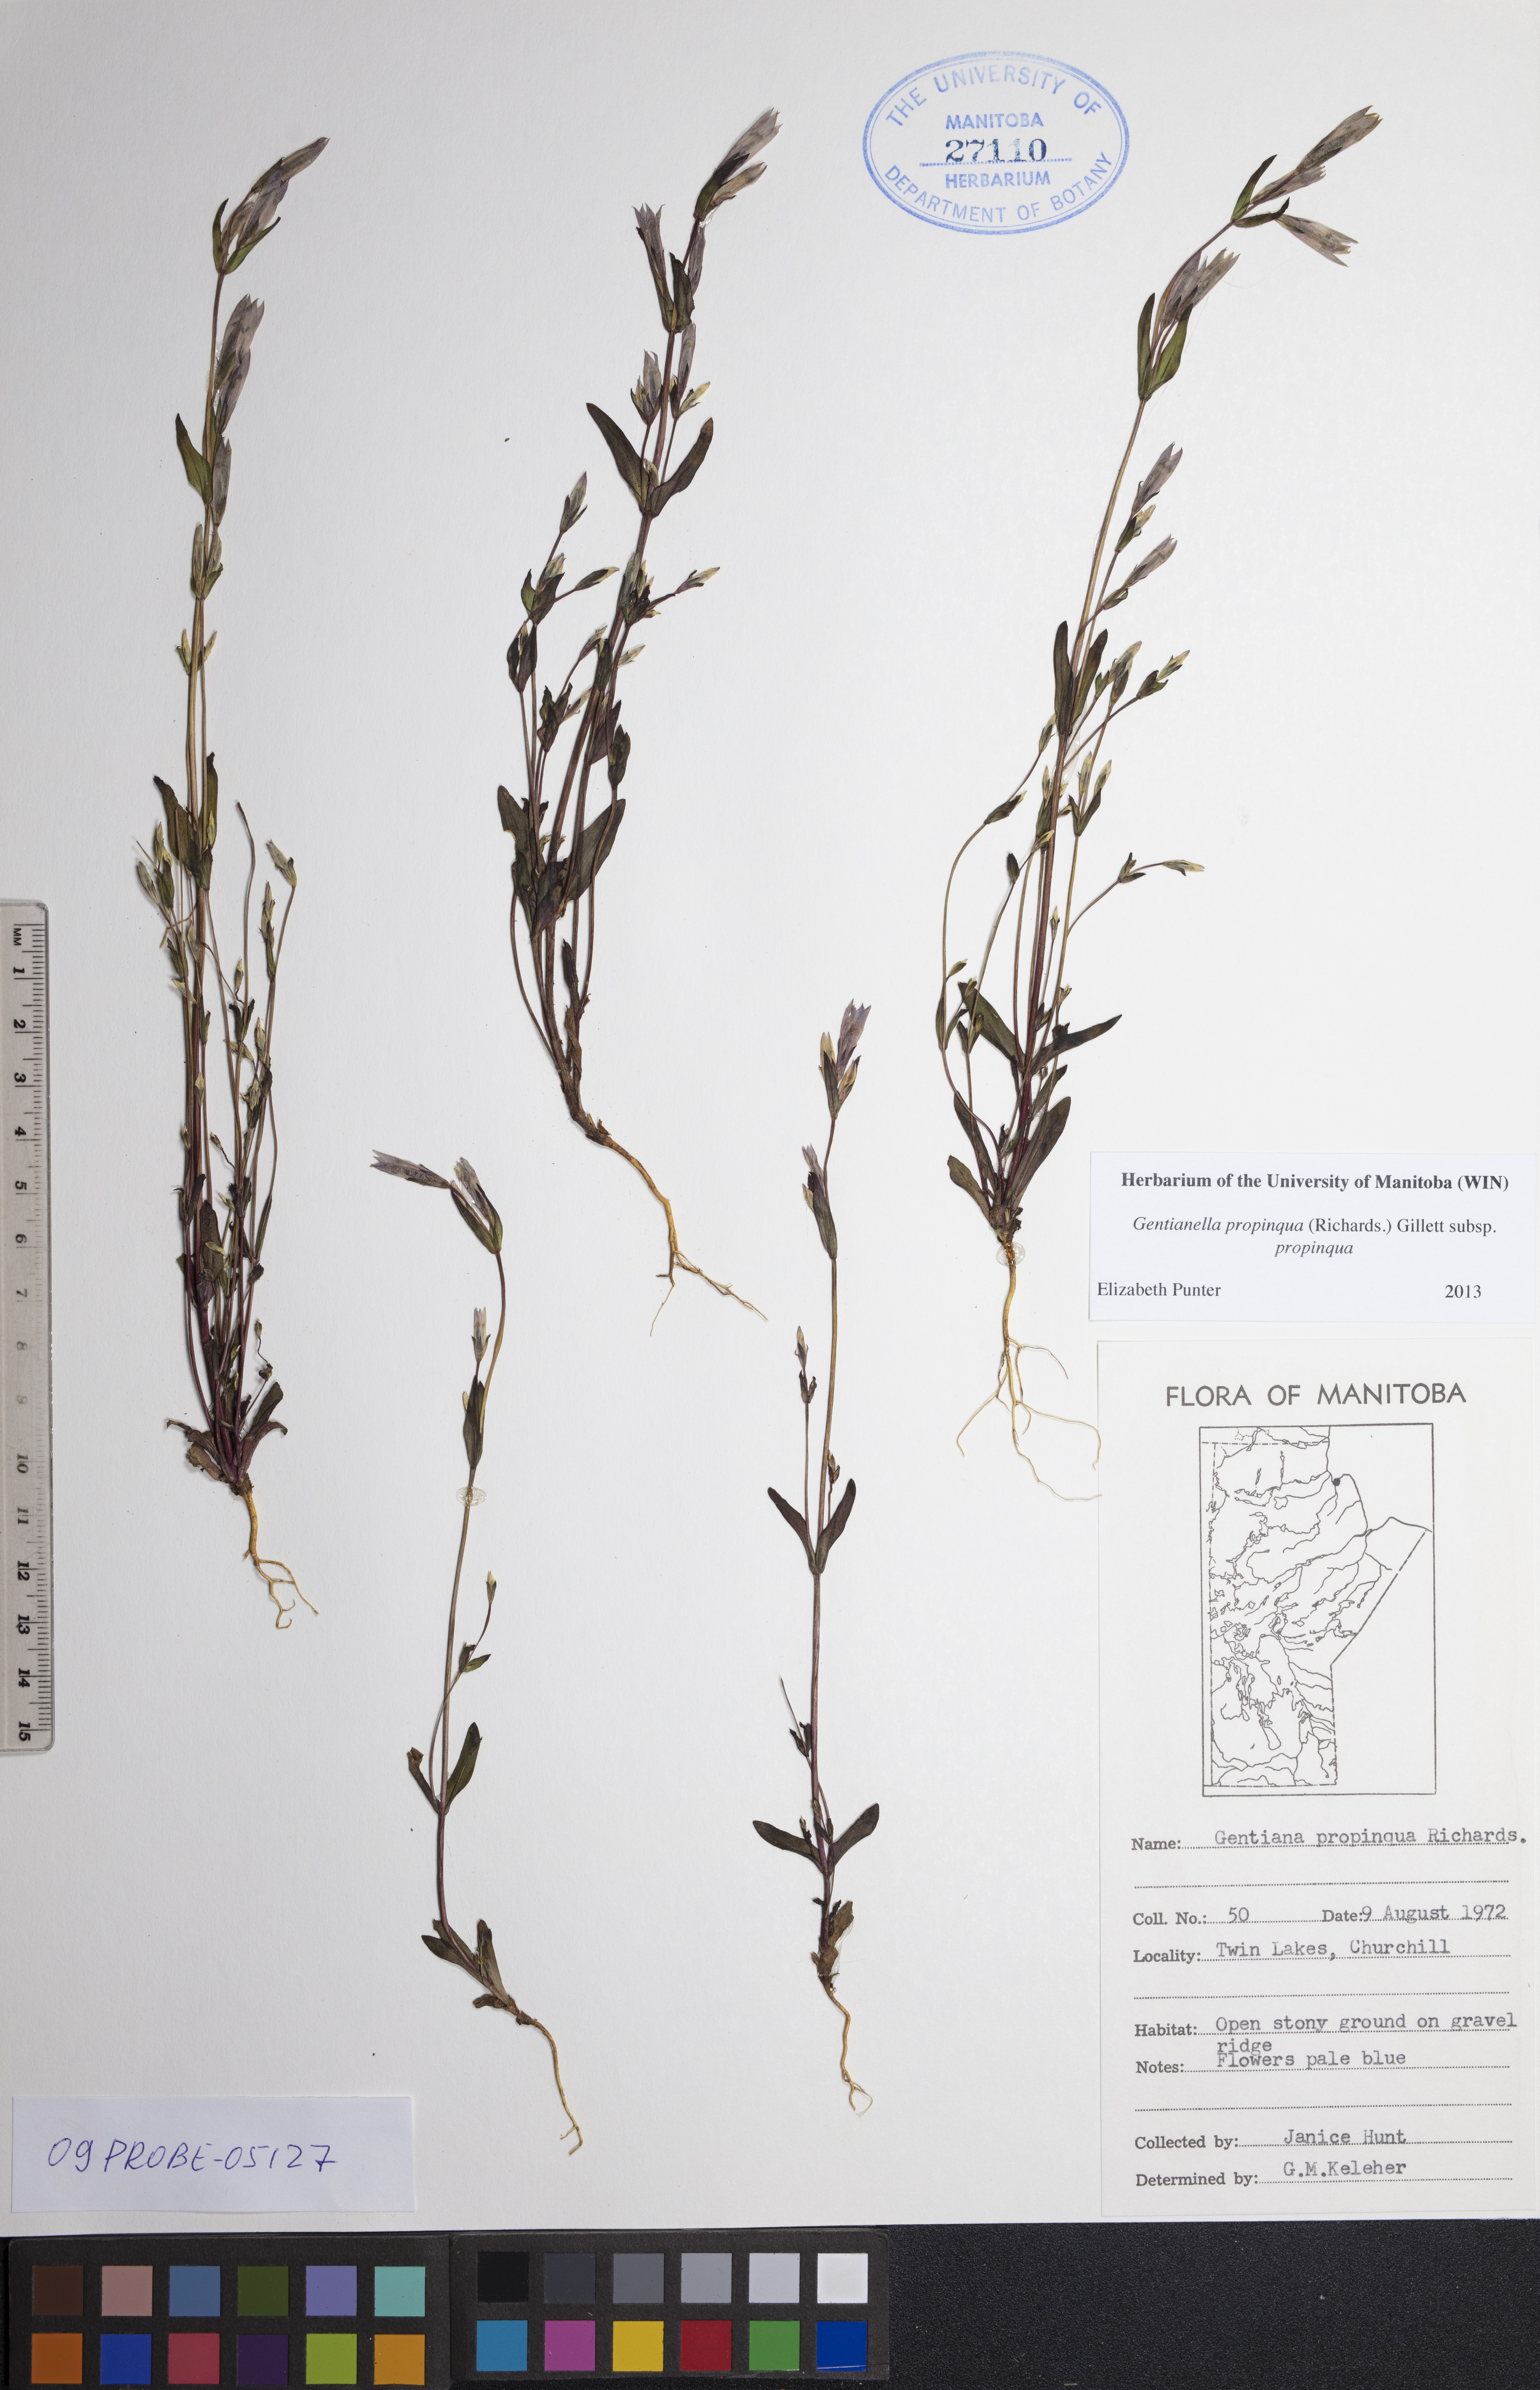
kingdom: Plantae
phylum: Tracheophyta
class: Magnoliopsida
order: Gentianales
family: Gentianaceae
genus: Gentianella
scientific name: Gentianella propinqua
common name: Four-parted dwarf-gentian
